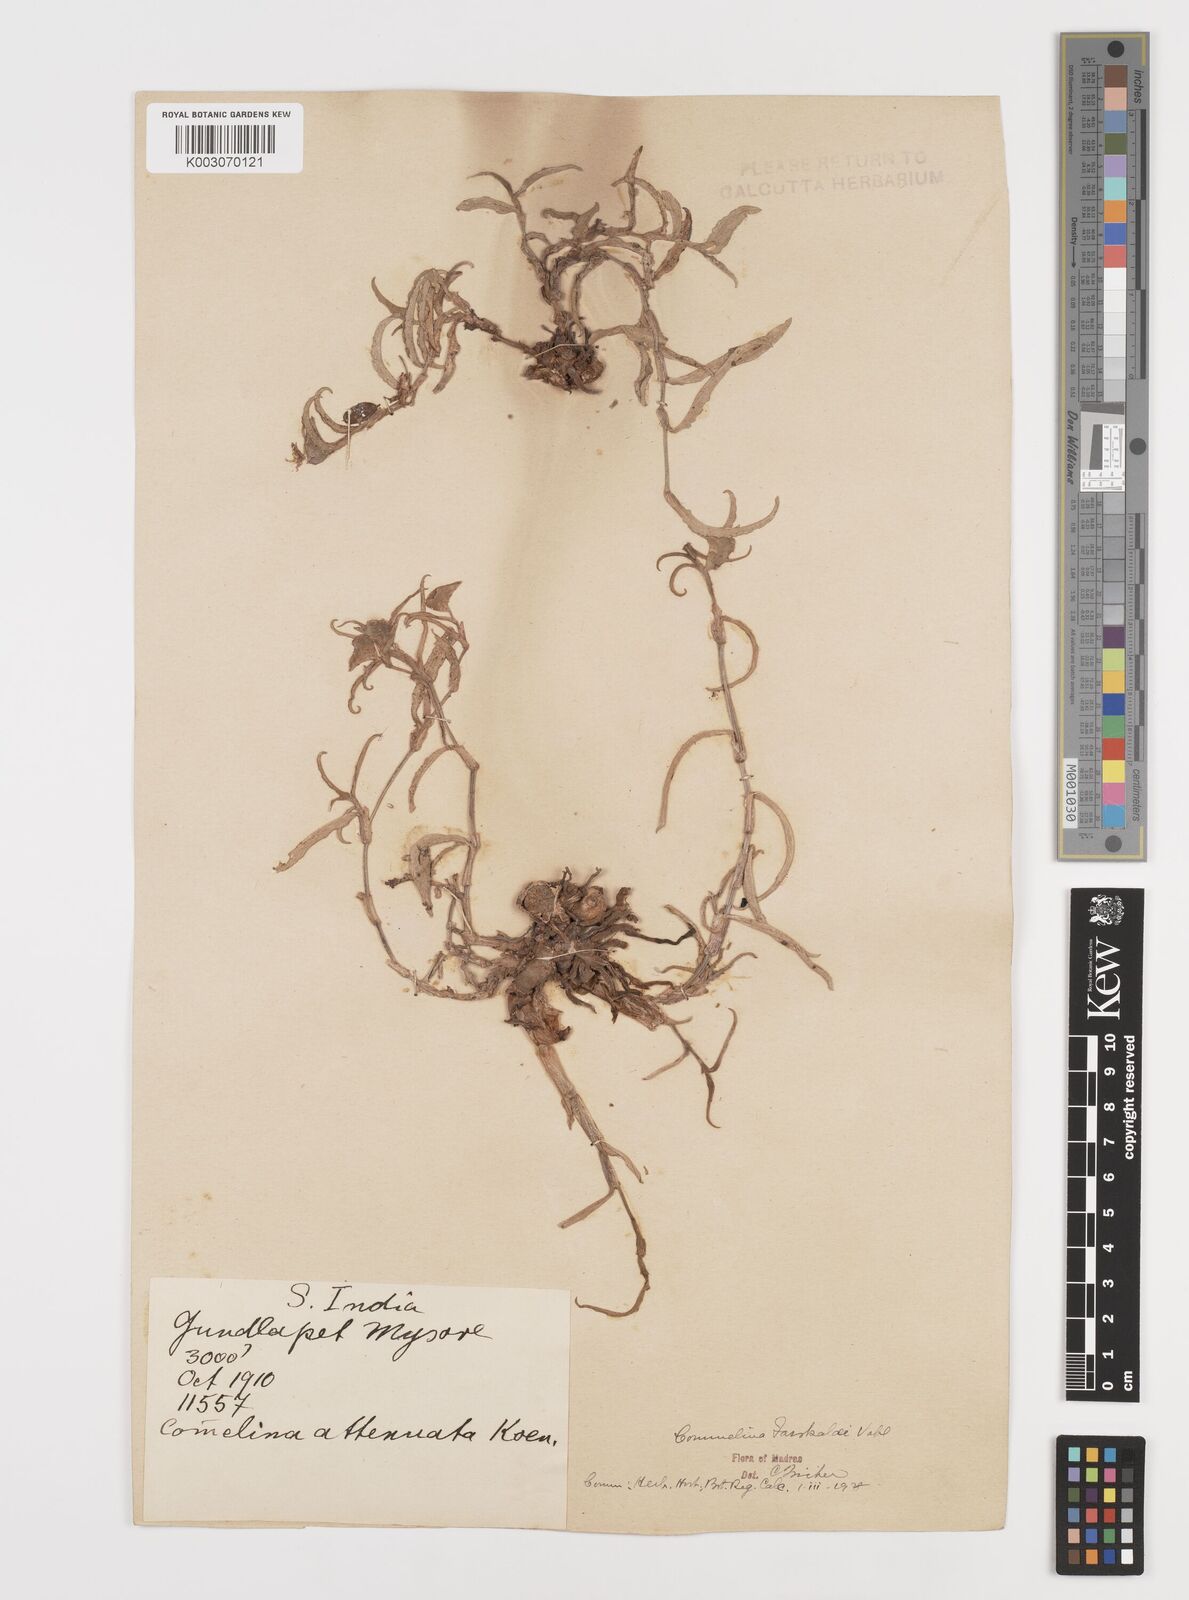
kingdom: Plantae
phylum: Tracheophyta
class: Liliopsida
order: Commelinales
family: Commelinaceae
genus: Commelina
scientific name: Commelina forskaolii
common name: Rat's ear
